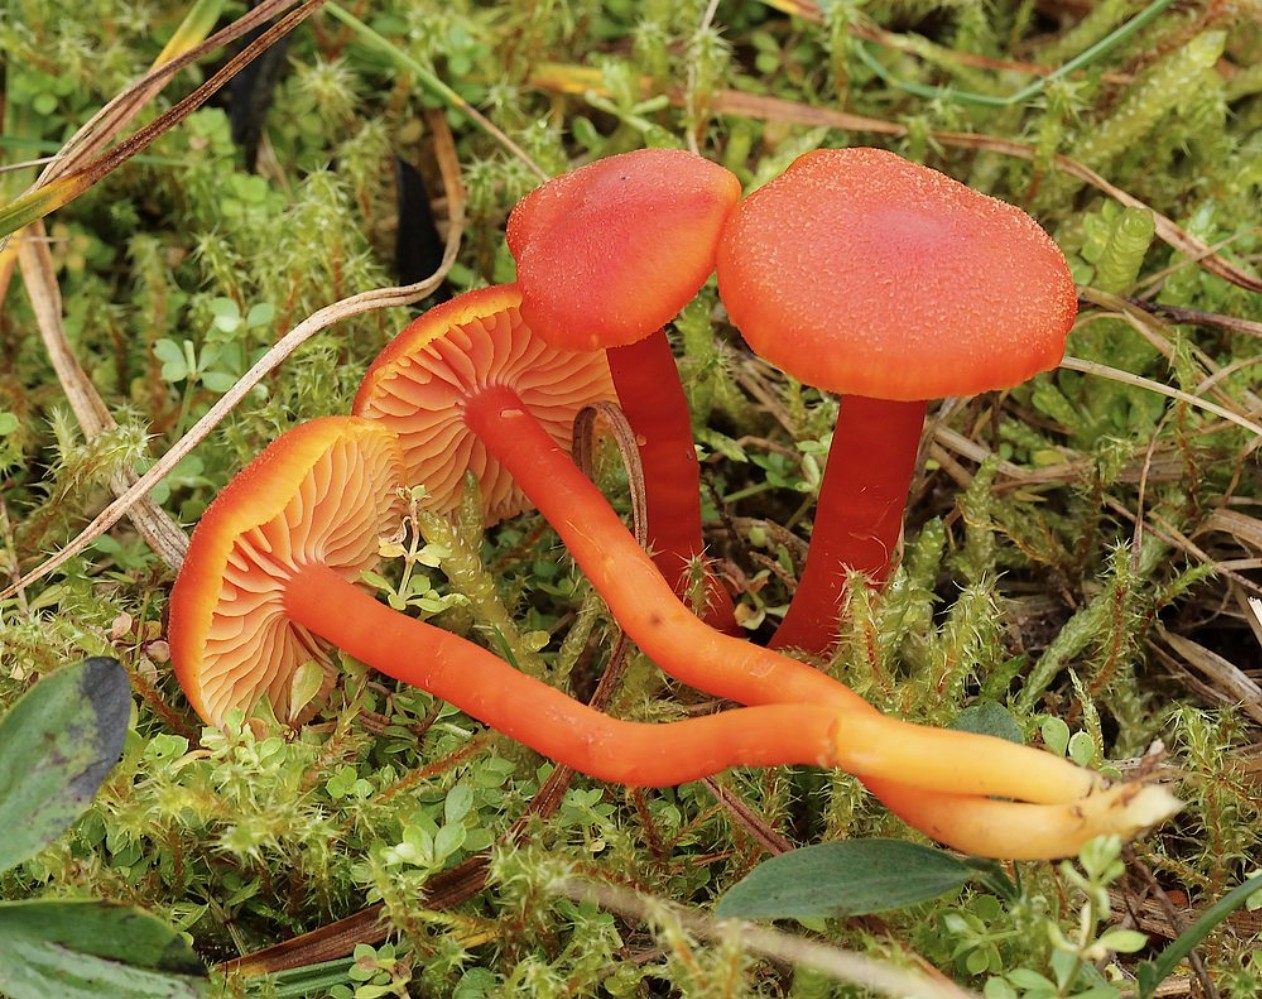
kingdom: Fungi
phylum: Basidiomycota
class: Agaricomycetes
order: Agaricales
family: Hygrophoraceae
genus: Hygrocybe
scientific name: Hygrocybe miniata
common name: mønje-vokshat
